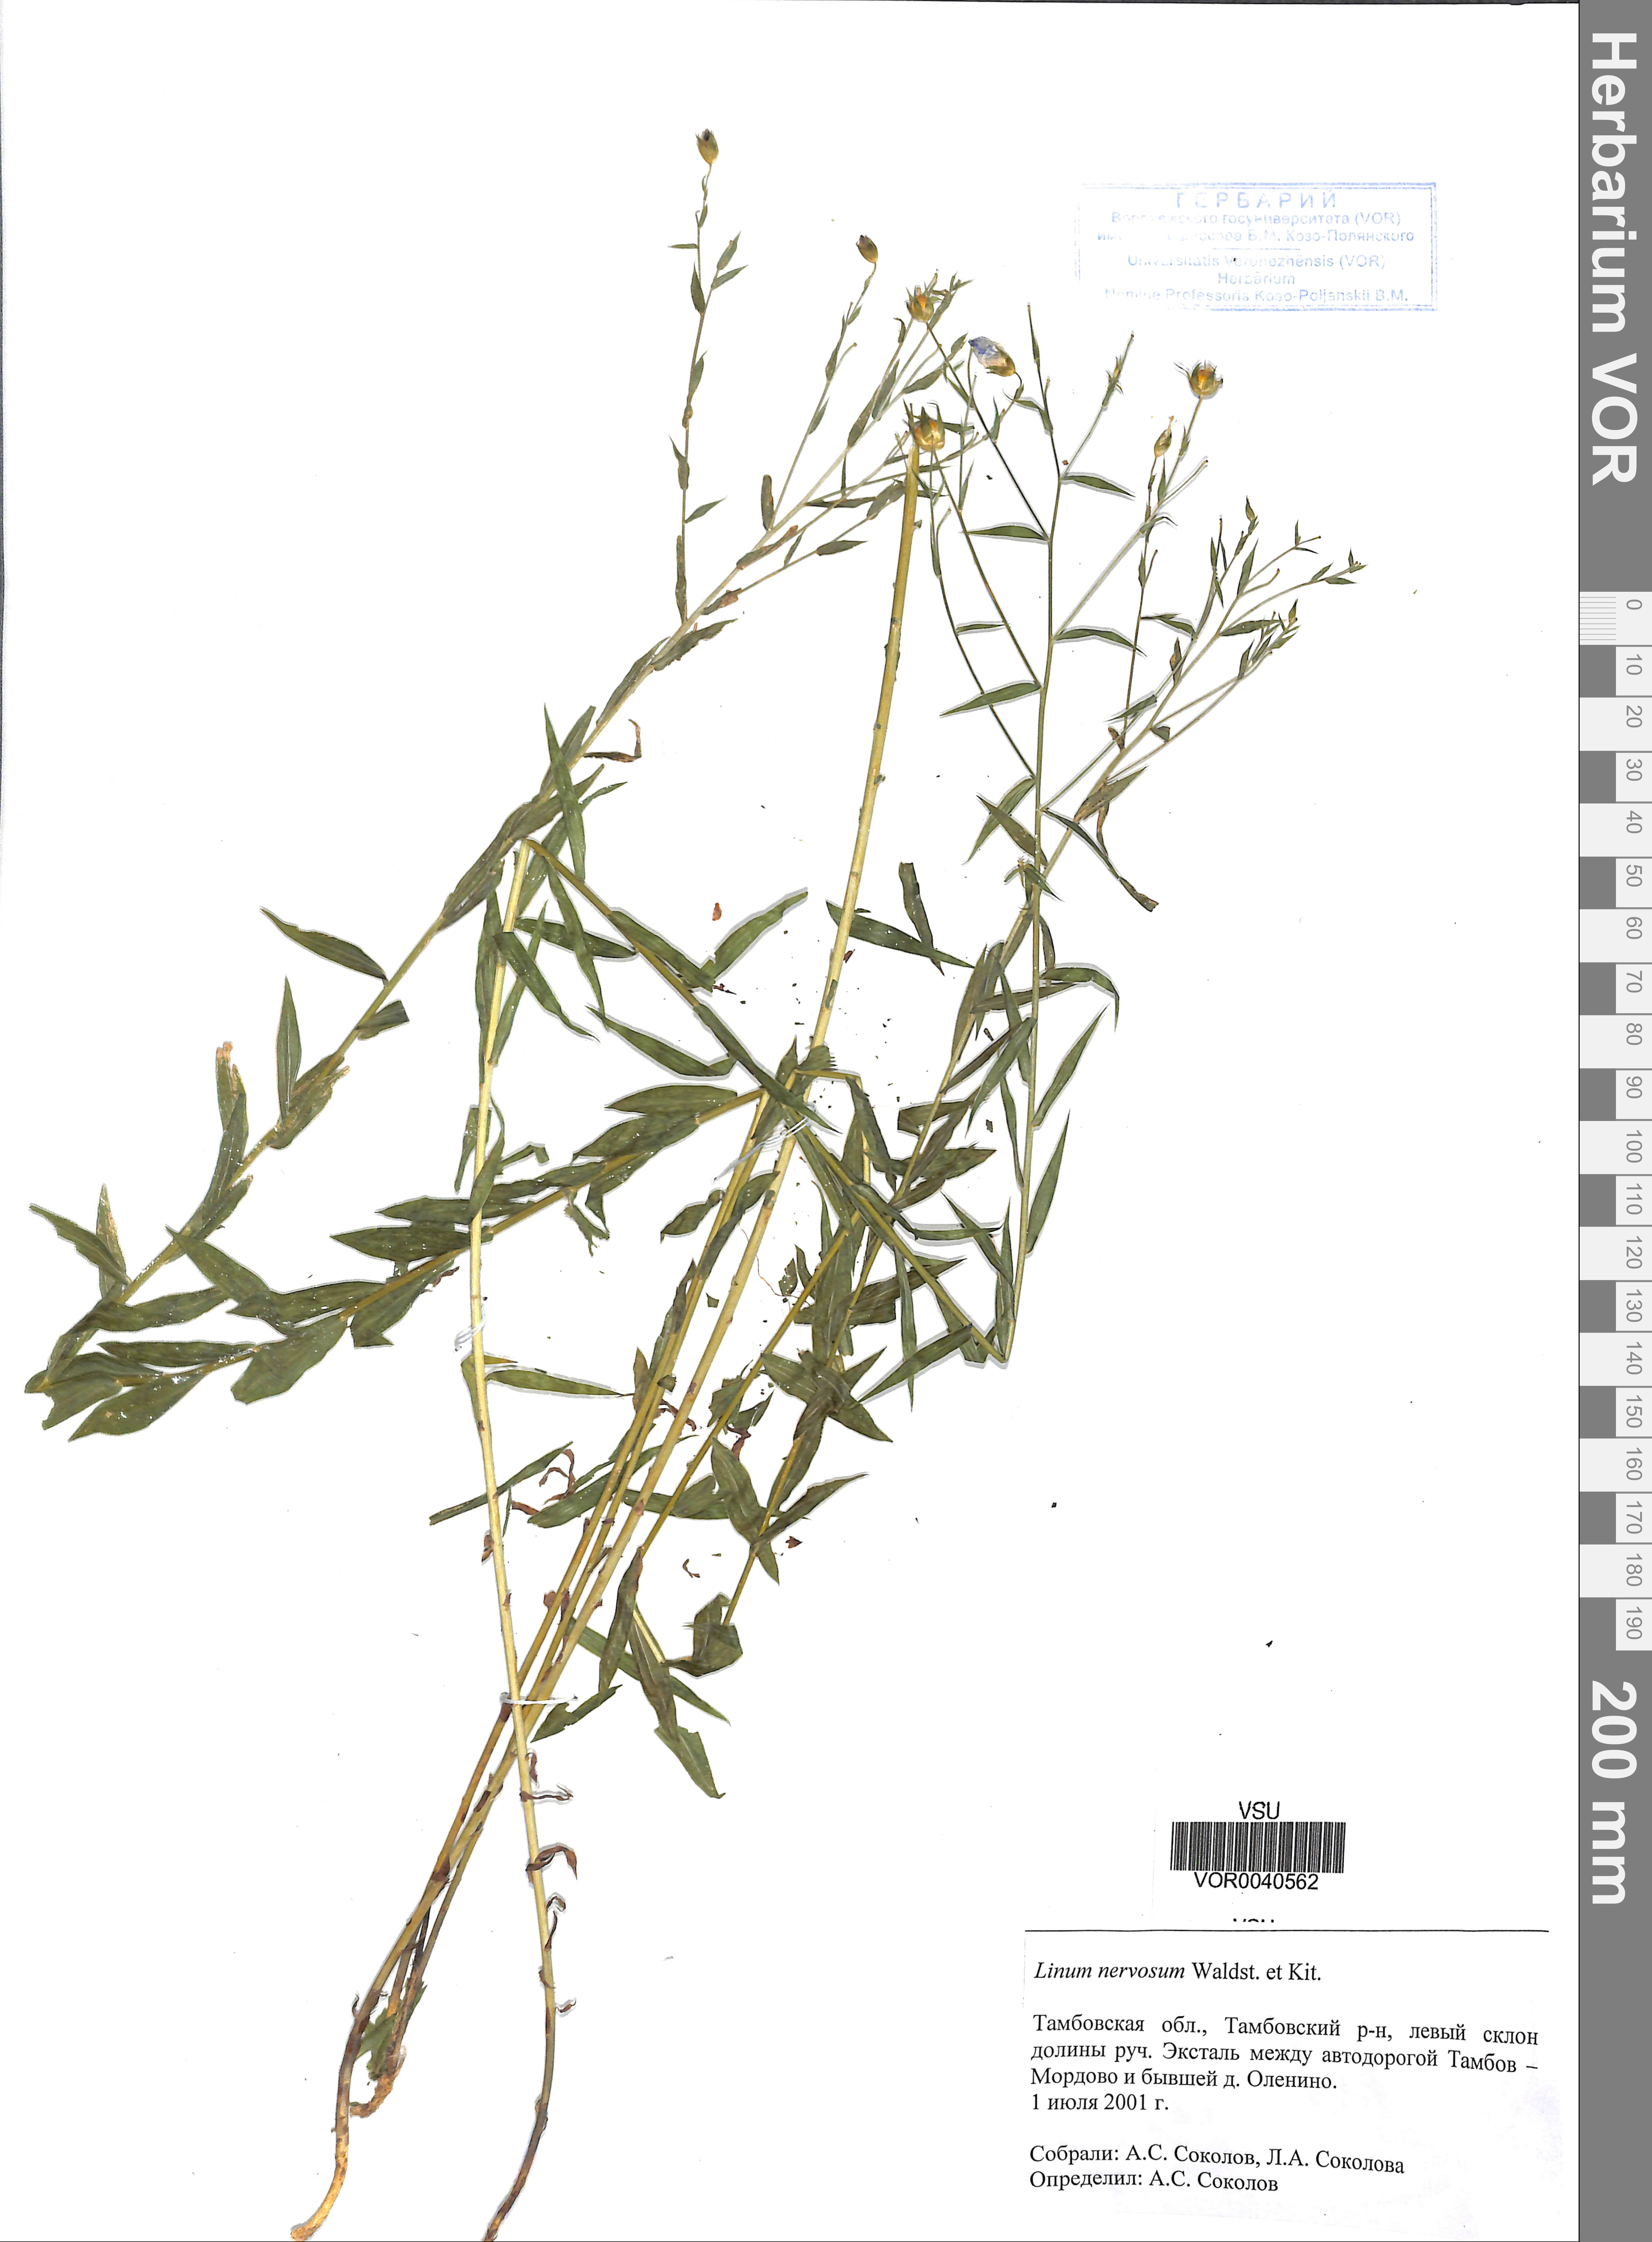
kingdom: Plantae
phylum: Tracheophyta
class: Magnoliopsida
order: Malpighiales
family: Linaceae
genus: Linum
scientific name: Linum nervosum
